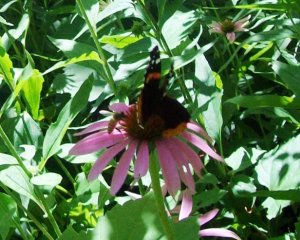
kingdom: Animalia
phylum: Arthropoda
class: Insecta
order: Lepidoptera
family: Nymphalidae
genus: Vanessa
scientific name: Vanessa atalanta
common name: Red Admiral
